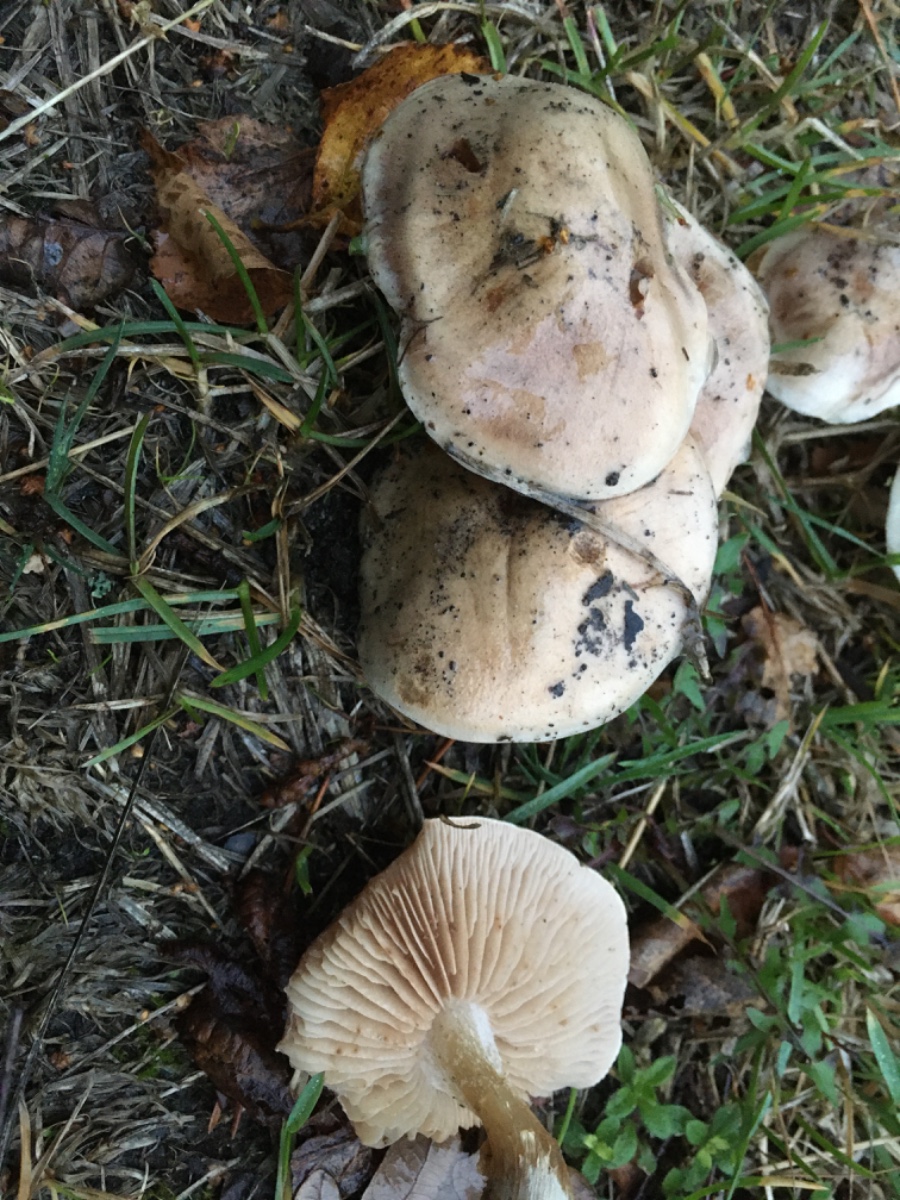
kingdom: Fungi
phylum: Basidiomycota
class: Agaricomycetes
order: Agaricales
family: Hymenogastraceae
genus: Hebeloma
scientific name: Hebeloma
